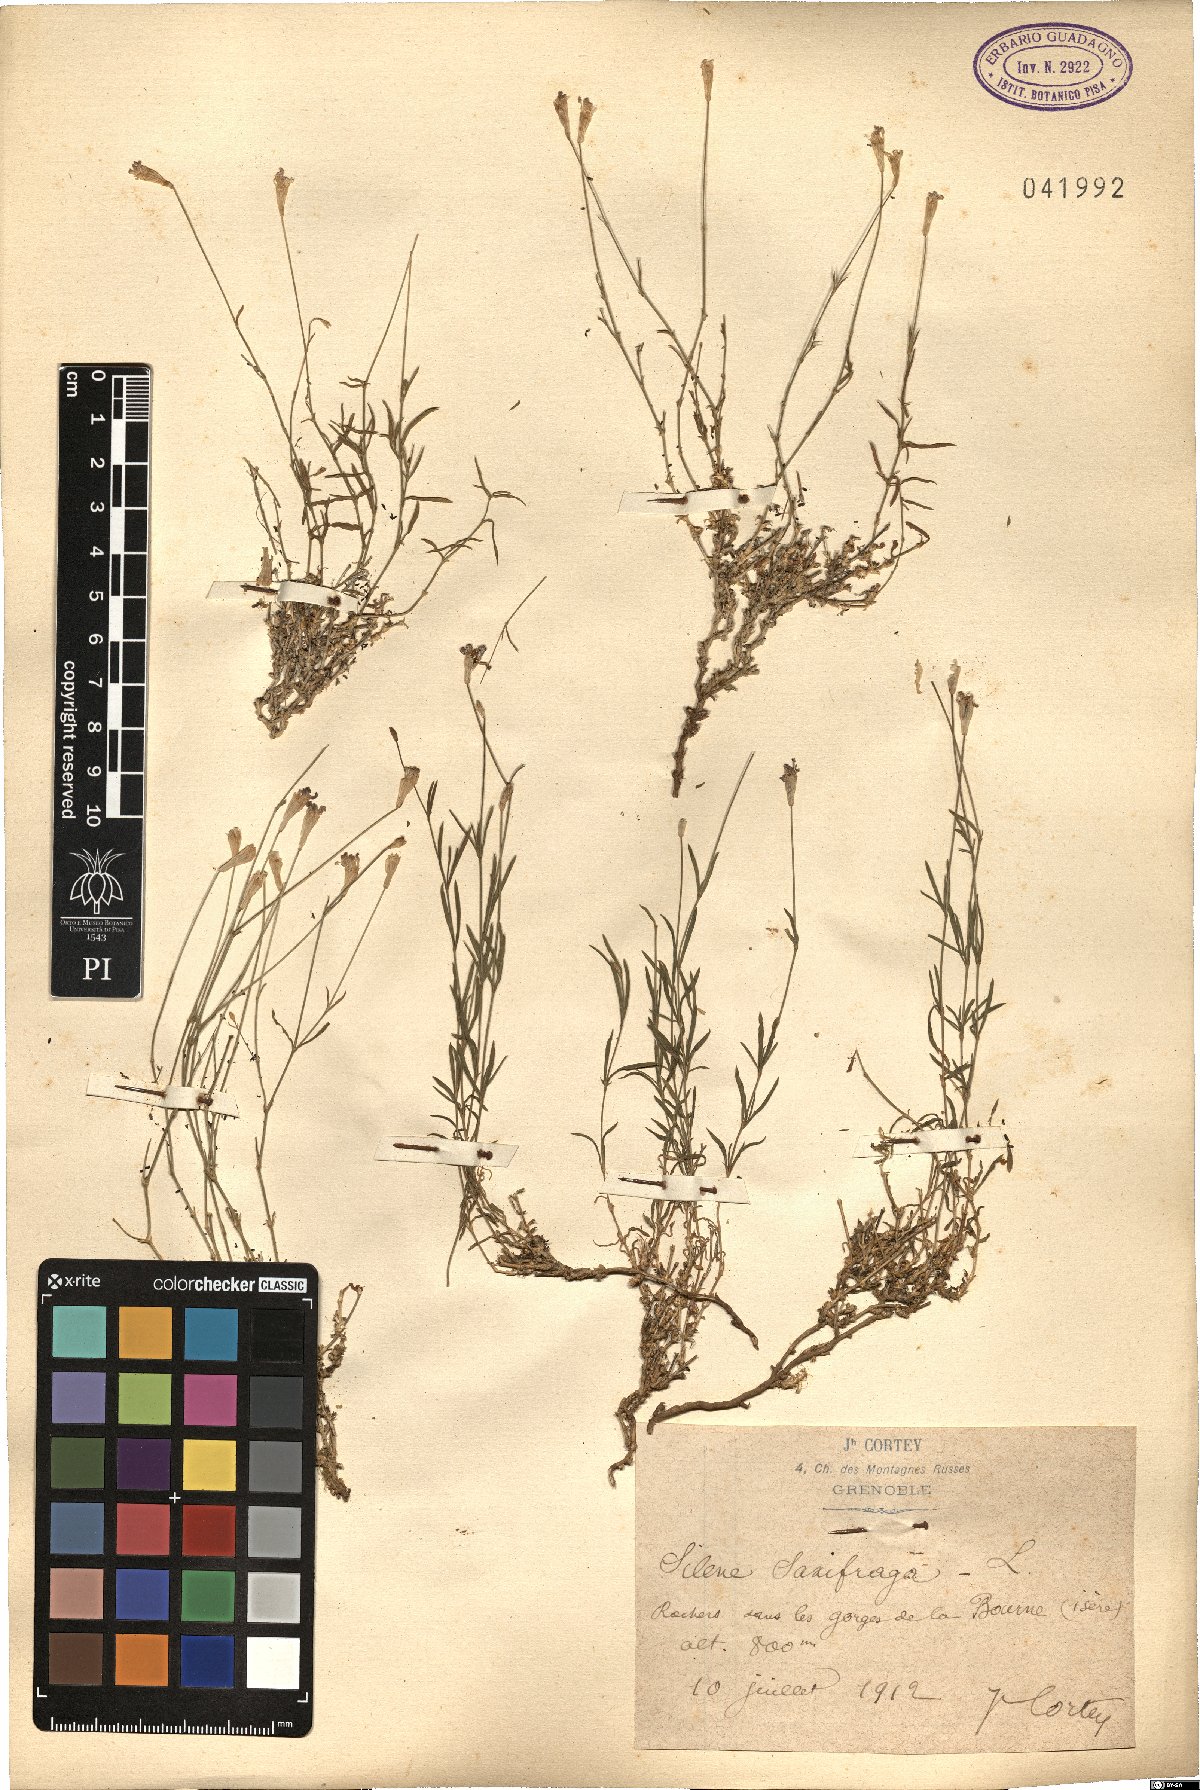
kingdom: Plantae
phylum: Tracheophyta
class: Magnoliopsida
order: Caryophyllales
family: Caryophyllaceae
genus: Silene
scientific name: Silene saxifraga
